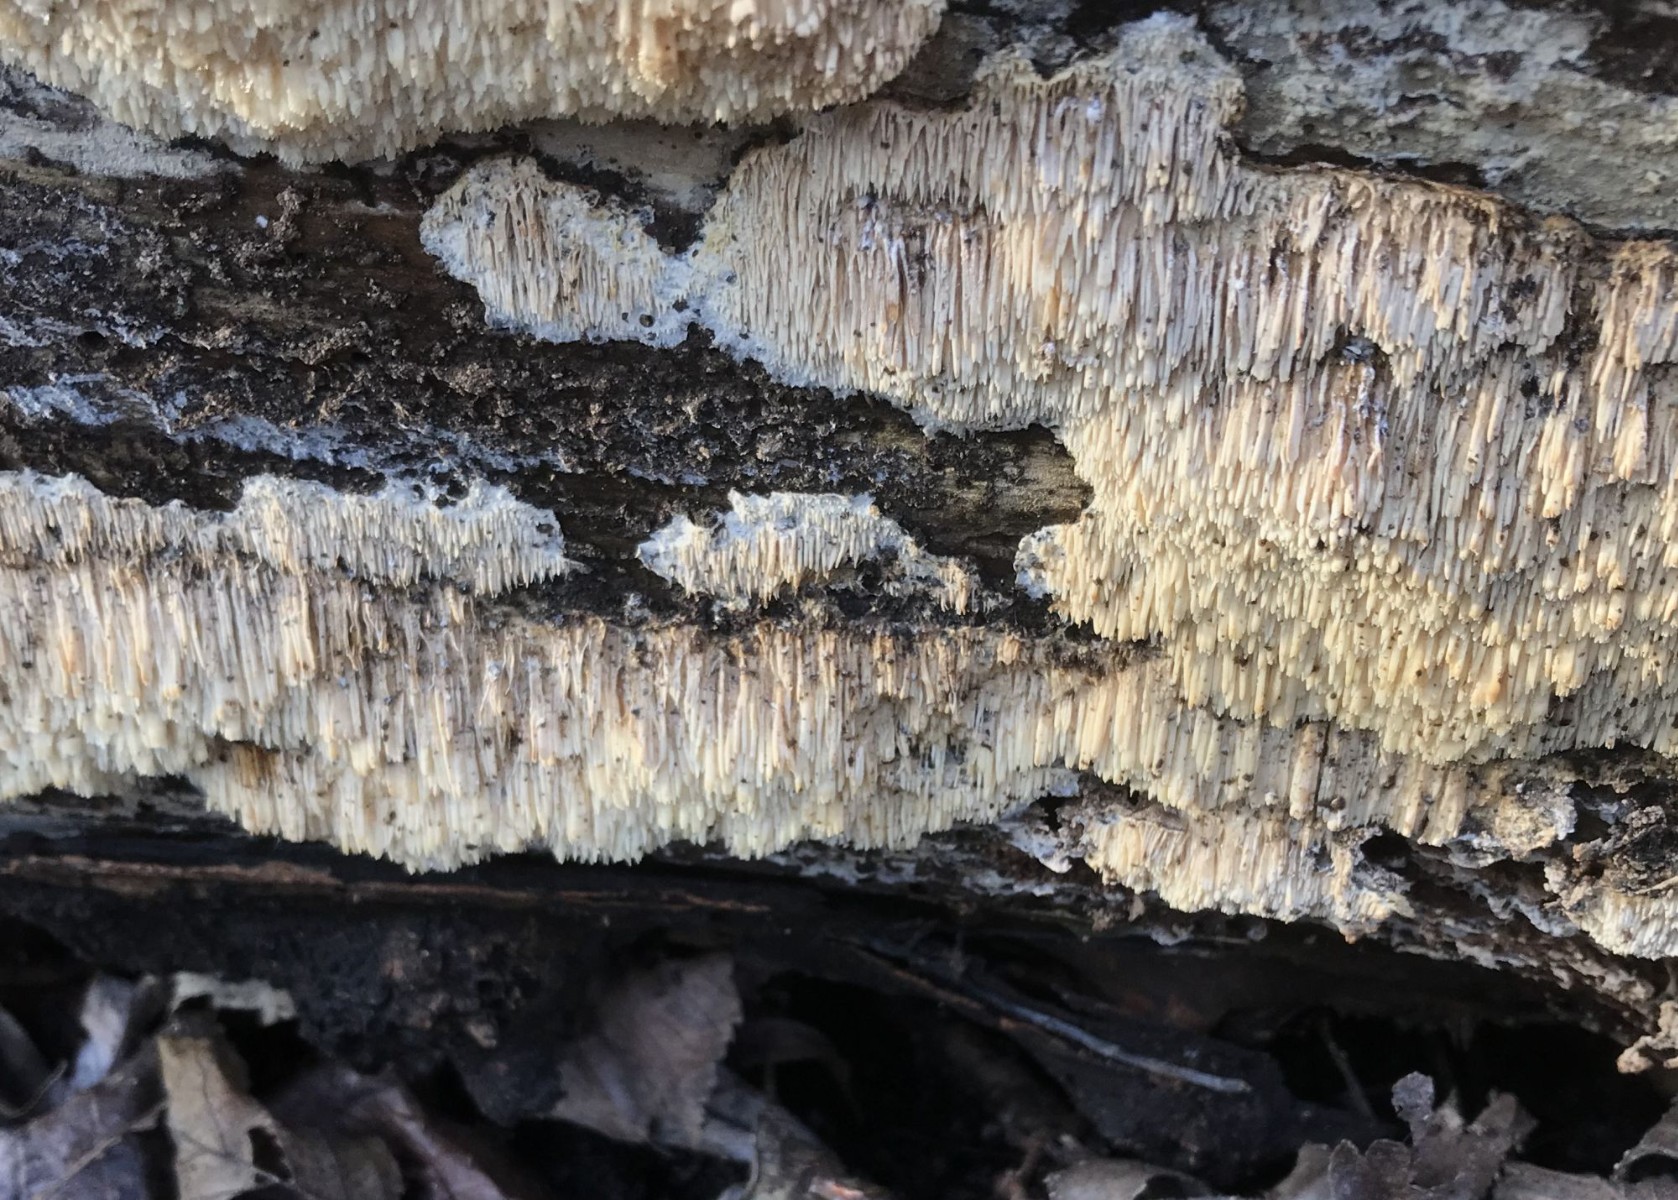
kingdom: Fungi
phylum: Basidiomycota
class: Agaricomycetes
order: Hymenochaetales
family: Schizoporaceae
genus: Xylodon
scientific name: Xylodon
